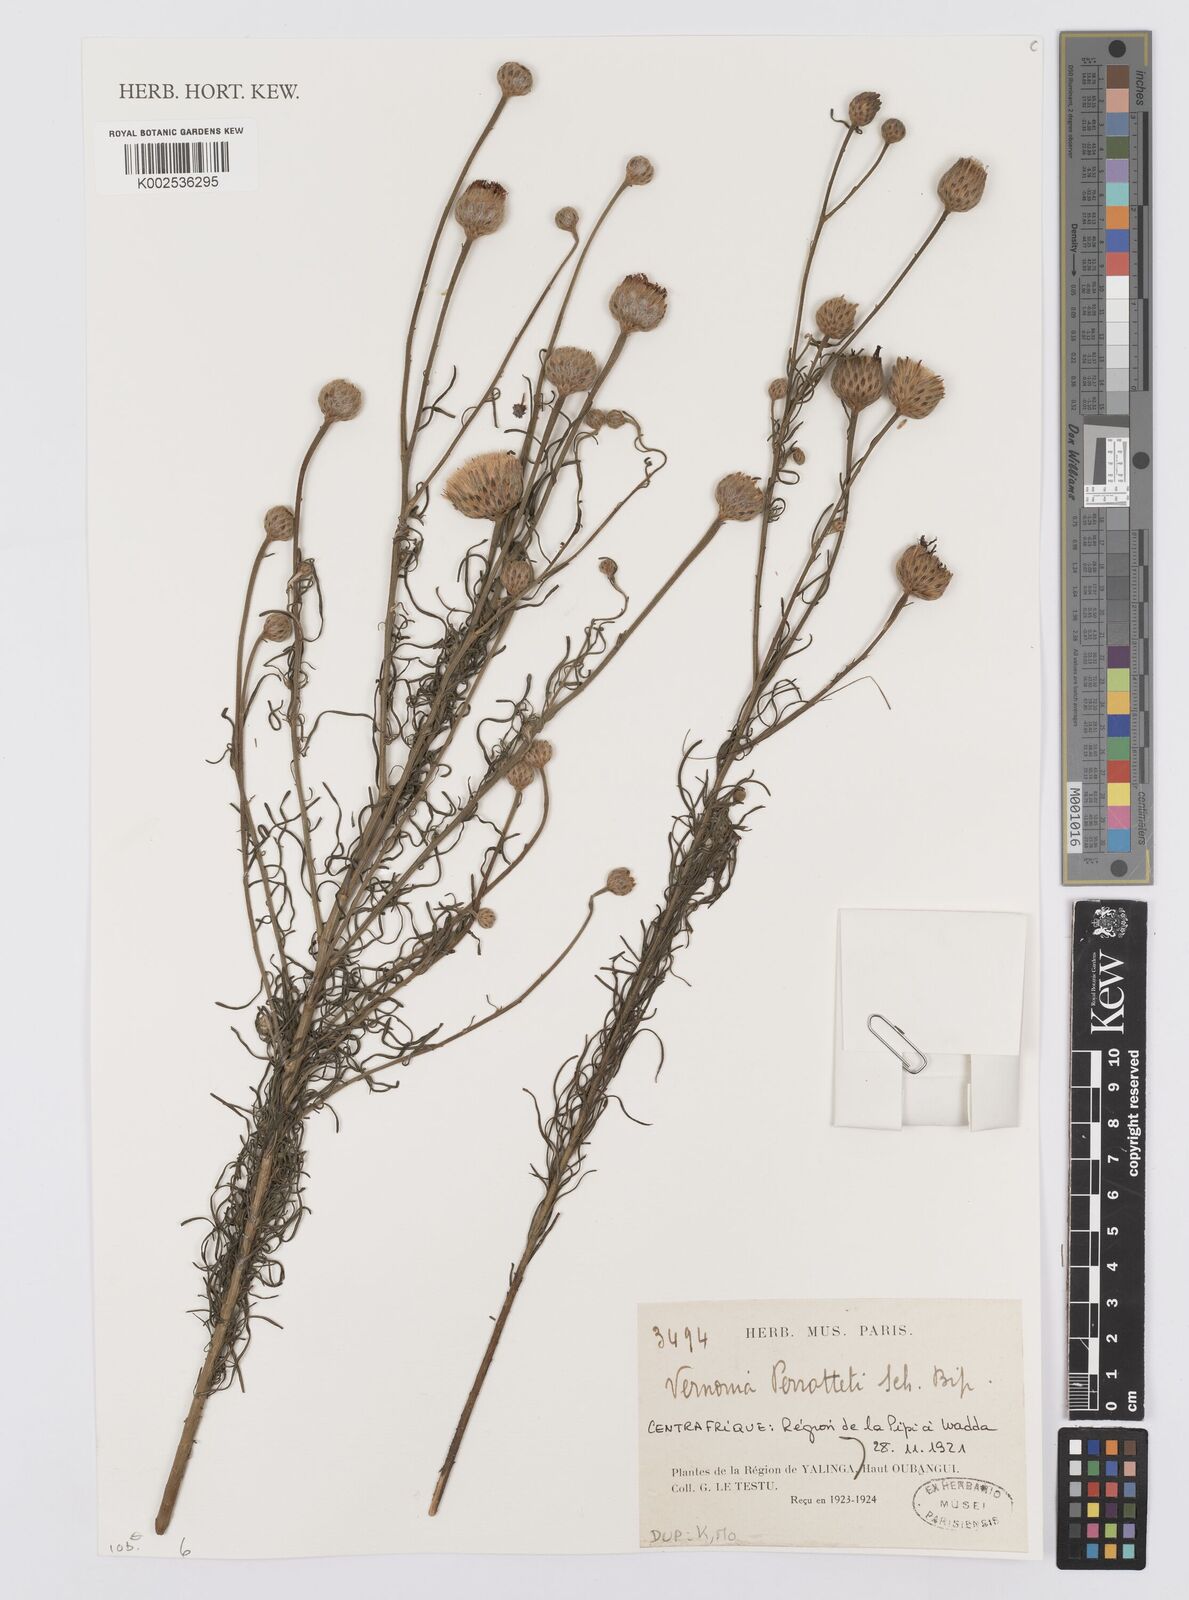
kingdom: Plantae
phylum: Tracheophyta
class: Magnoliopsida
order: Asterales
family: Asteraceae
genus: Crystallopollen
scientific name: Crystallopollen serratuloides
